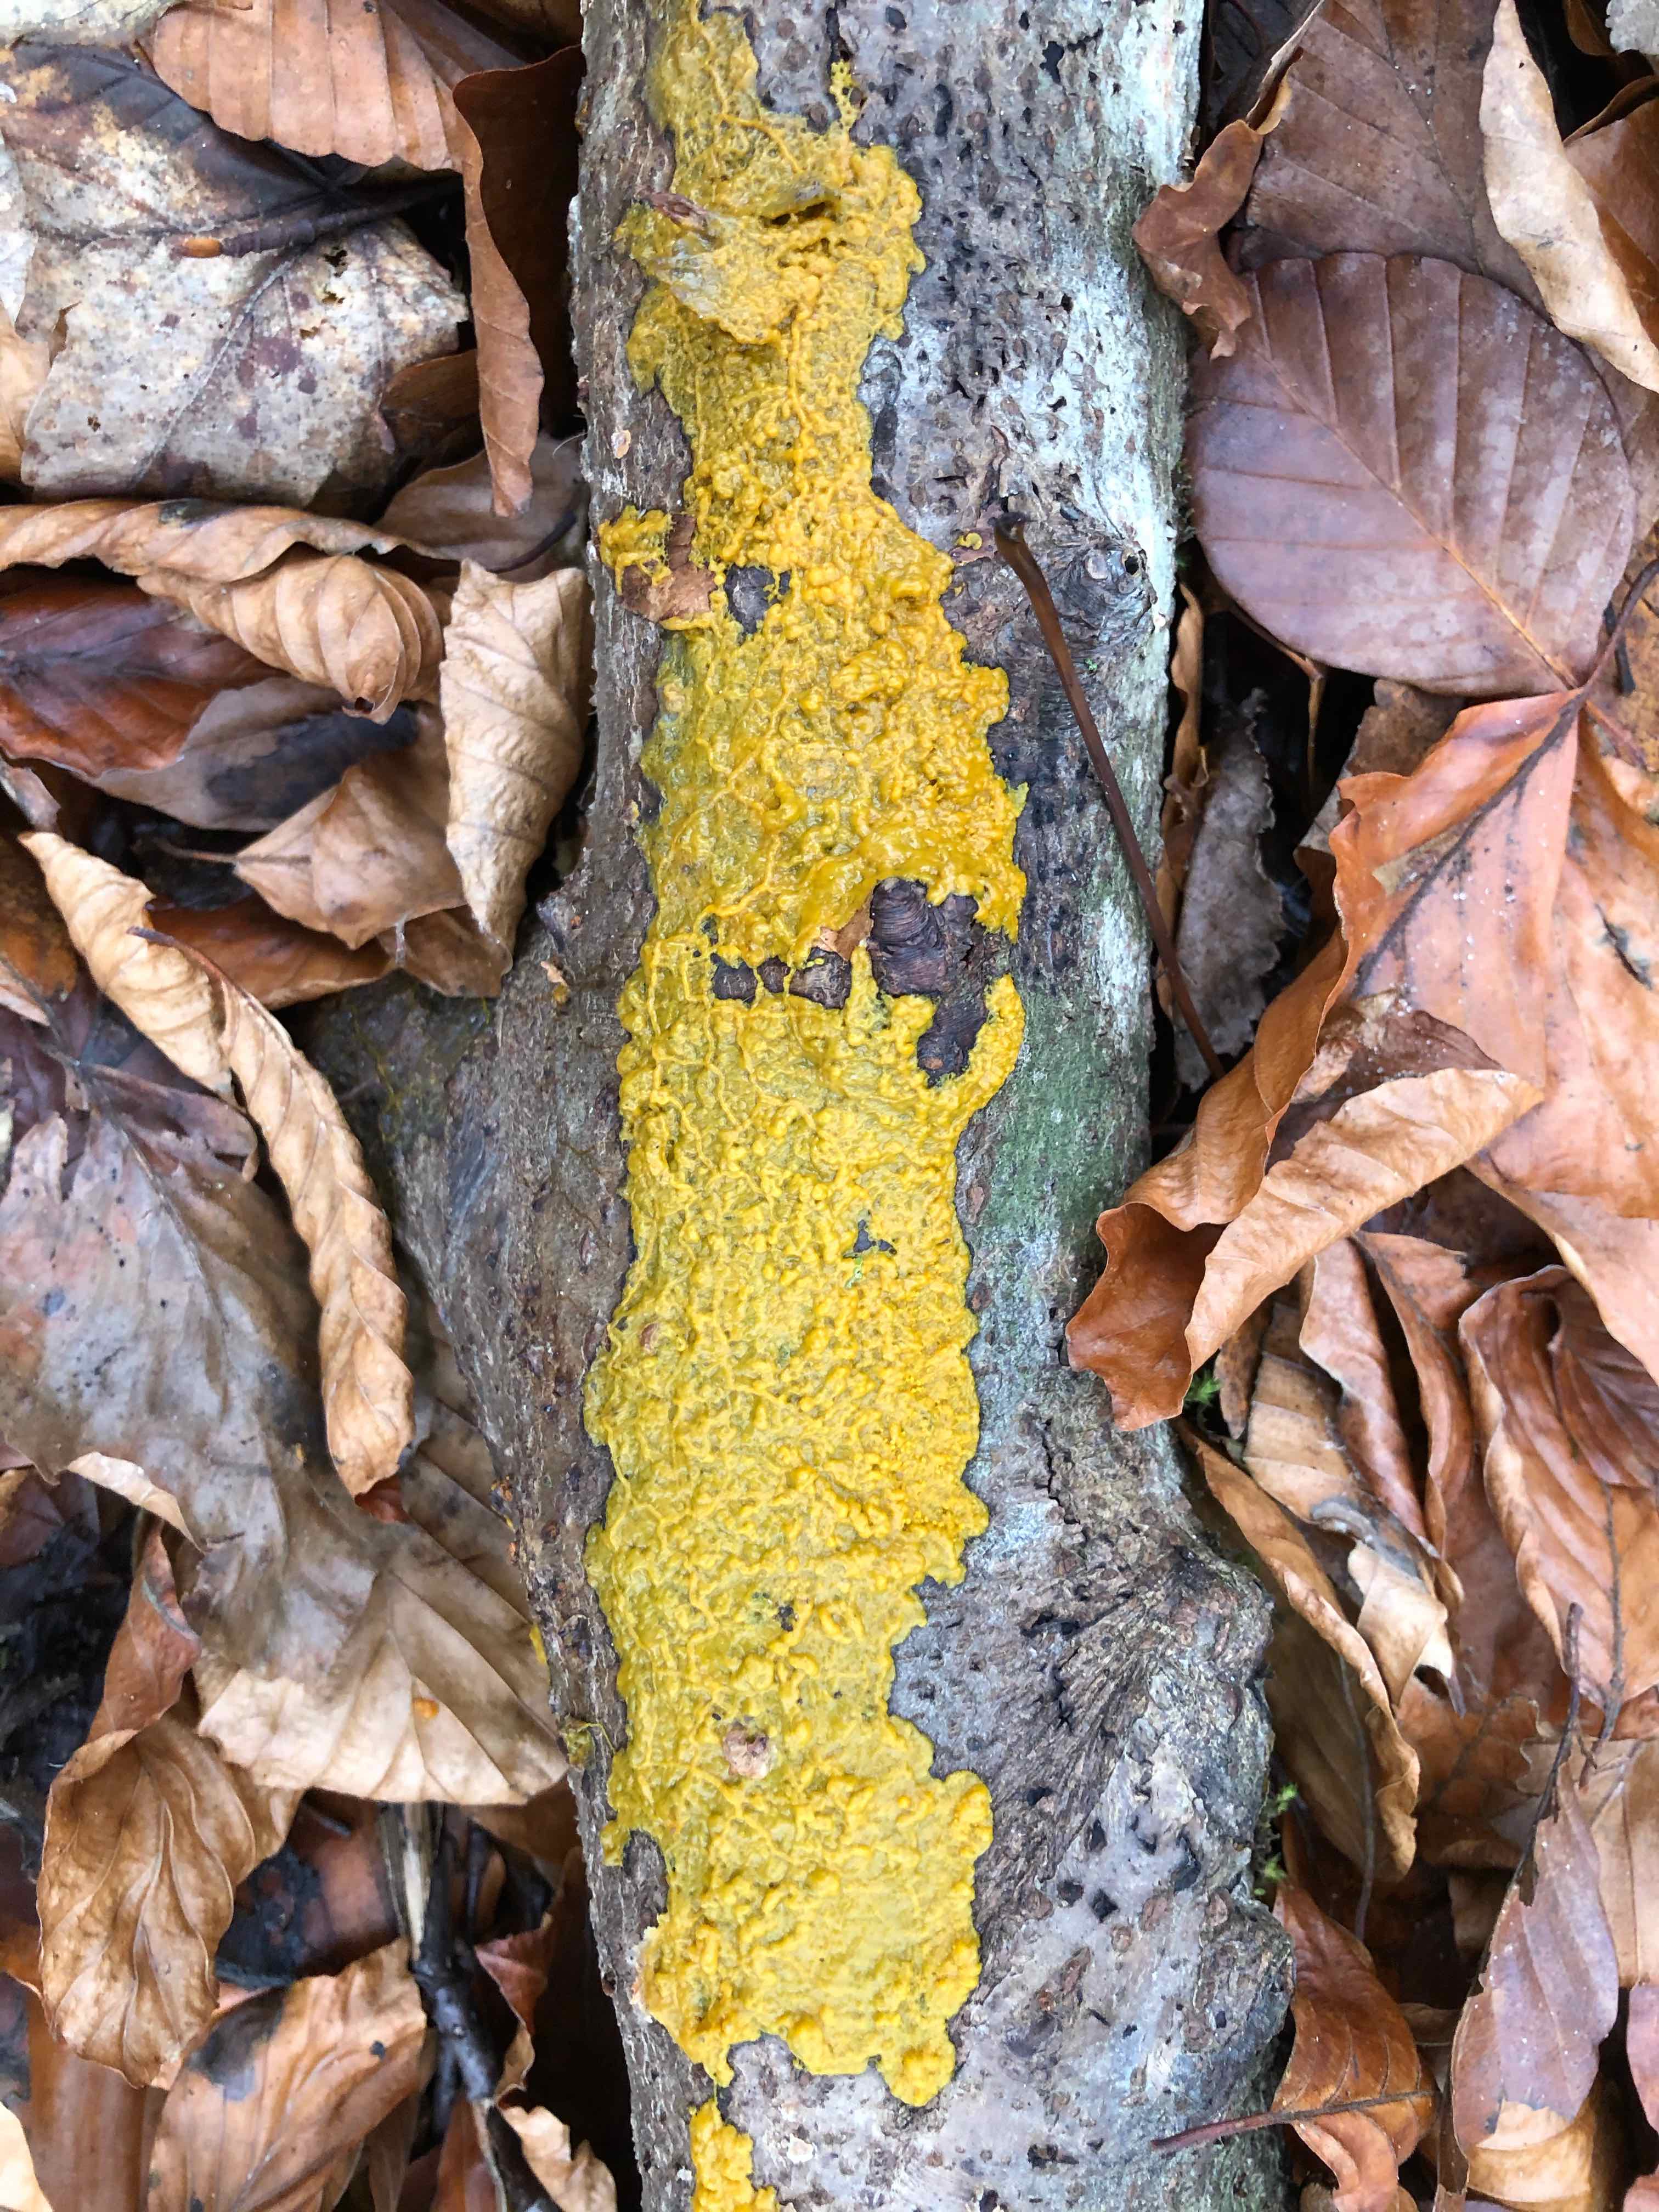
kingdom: Protozoa
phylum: Mycetozoa
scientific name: Mycetozoa
